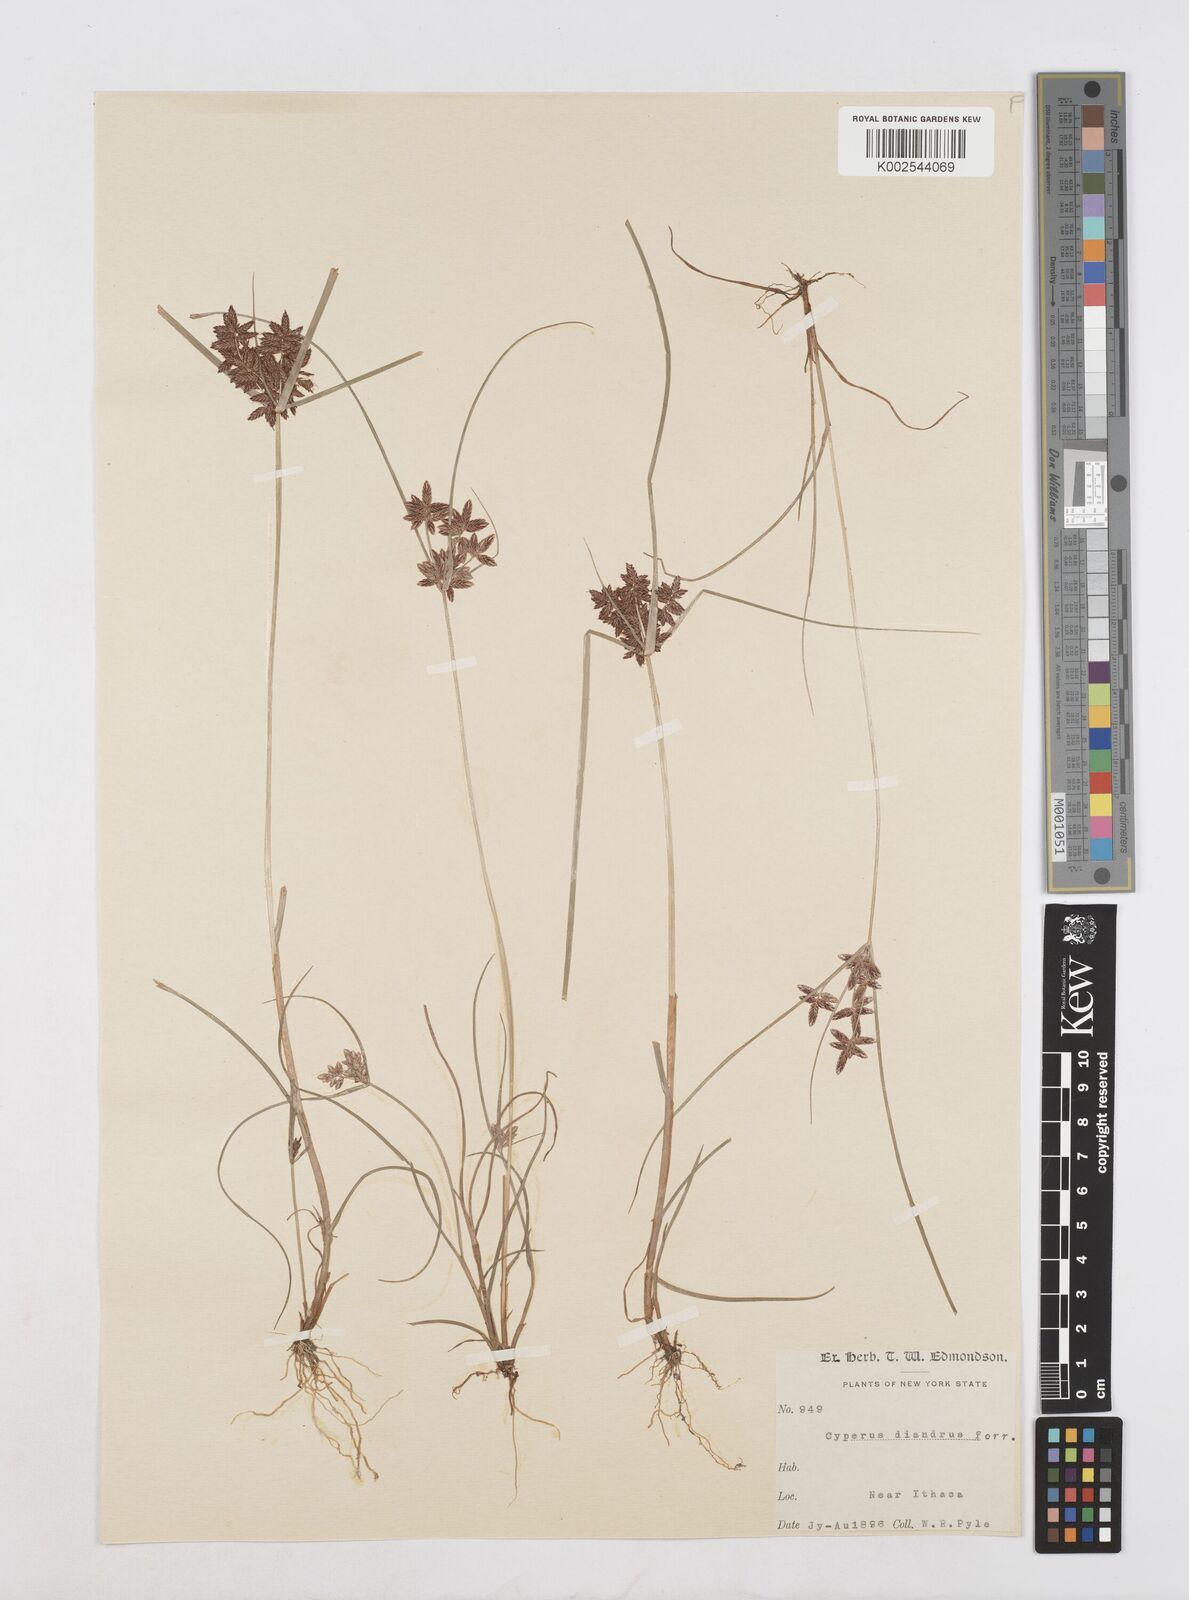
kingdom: Plantae
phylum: Tracheophyta
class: Liliopsida
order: Poales
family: Cyperaceae
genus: Cyperus
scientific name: Cyperus diandrus
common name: Low cyperus
